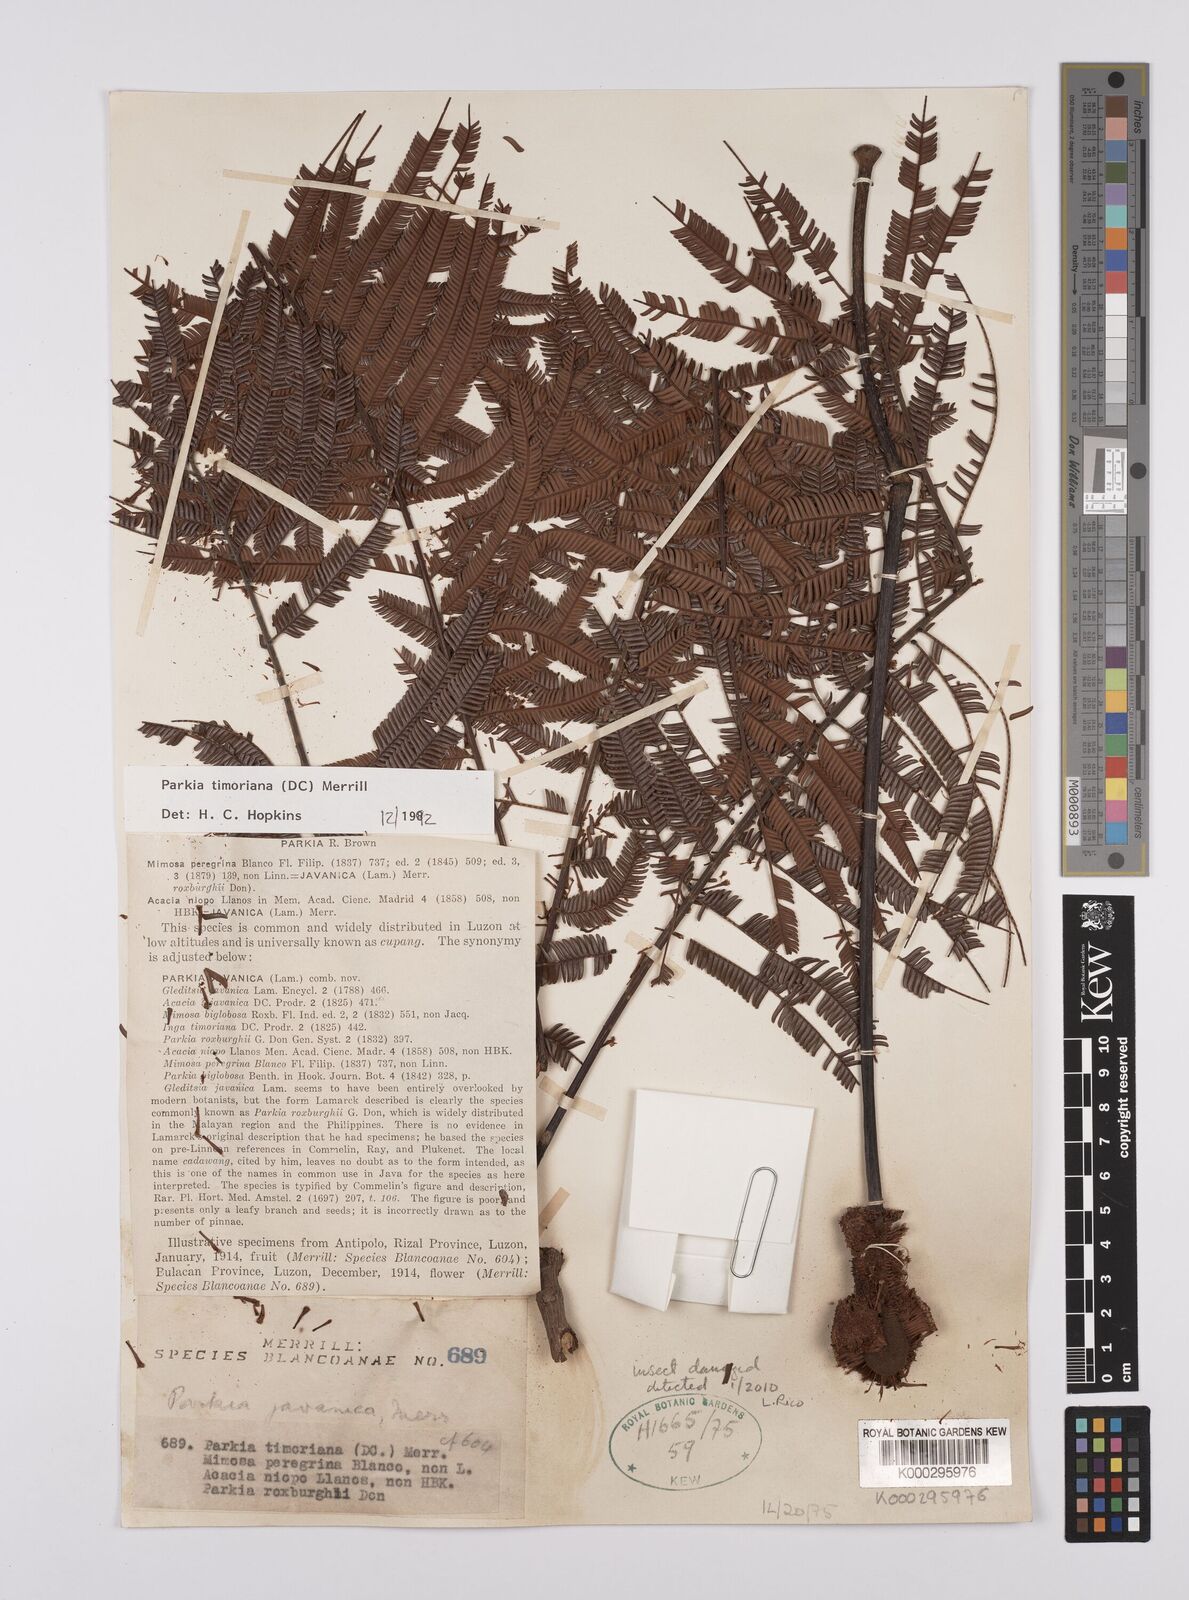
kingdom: Plantae
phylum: Tracheophyta
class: Magnoliopsida
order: Fabales
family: Fabaceae
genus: Parkia
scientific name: Parkia timoriana
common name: Legume
